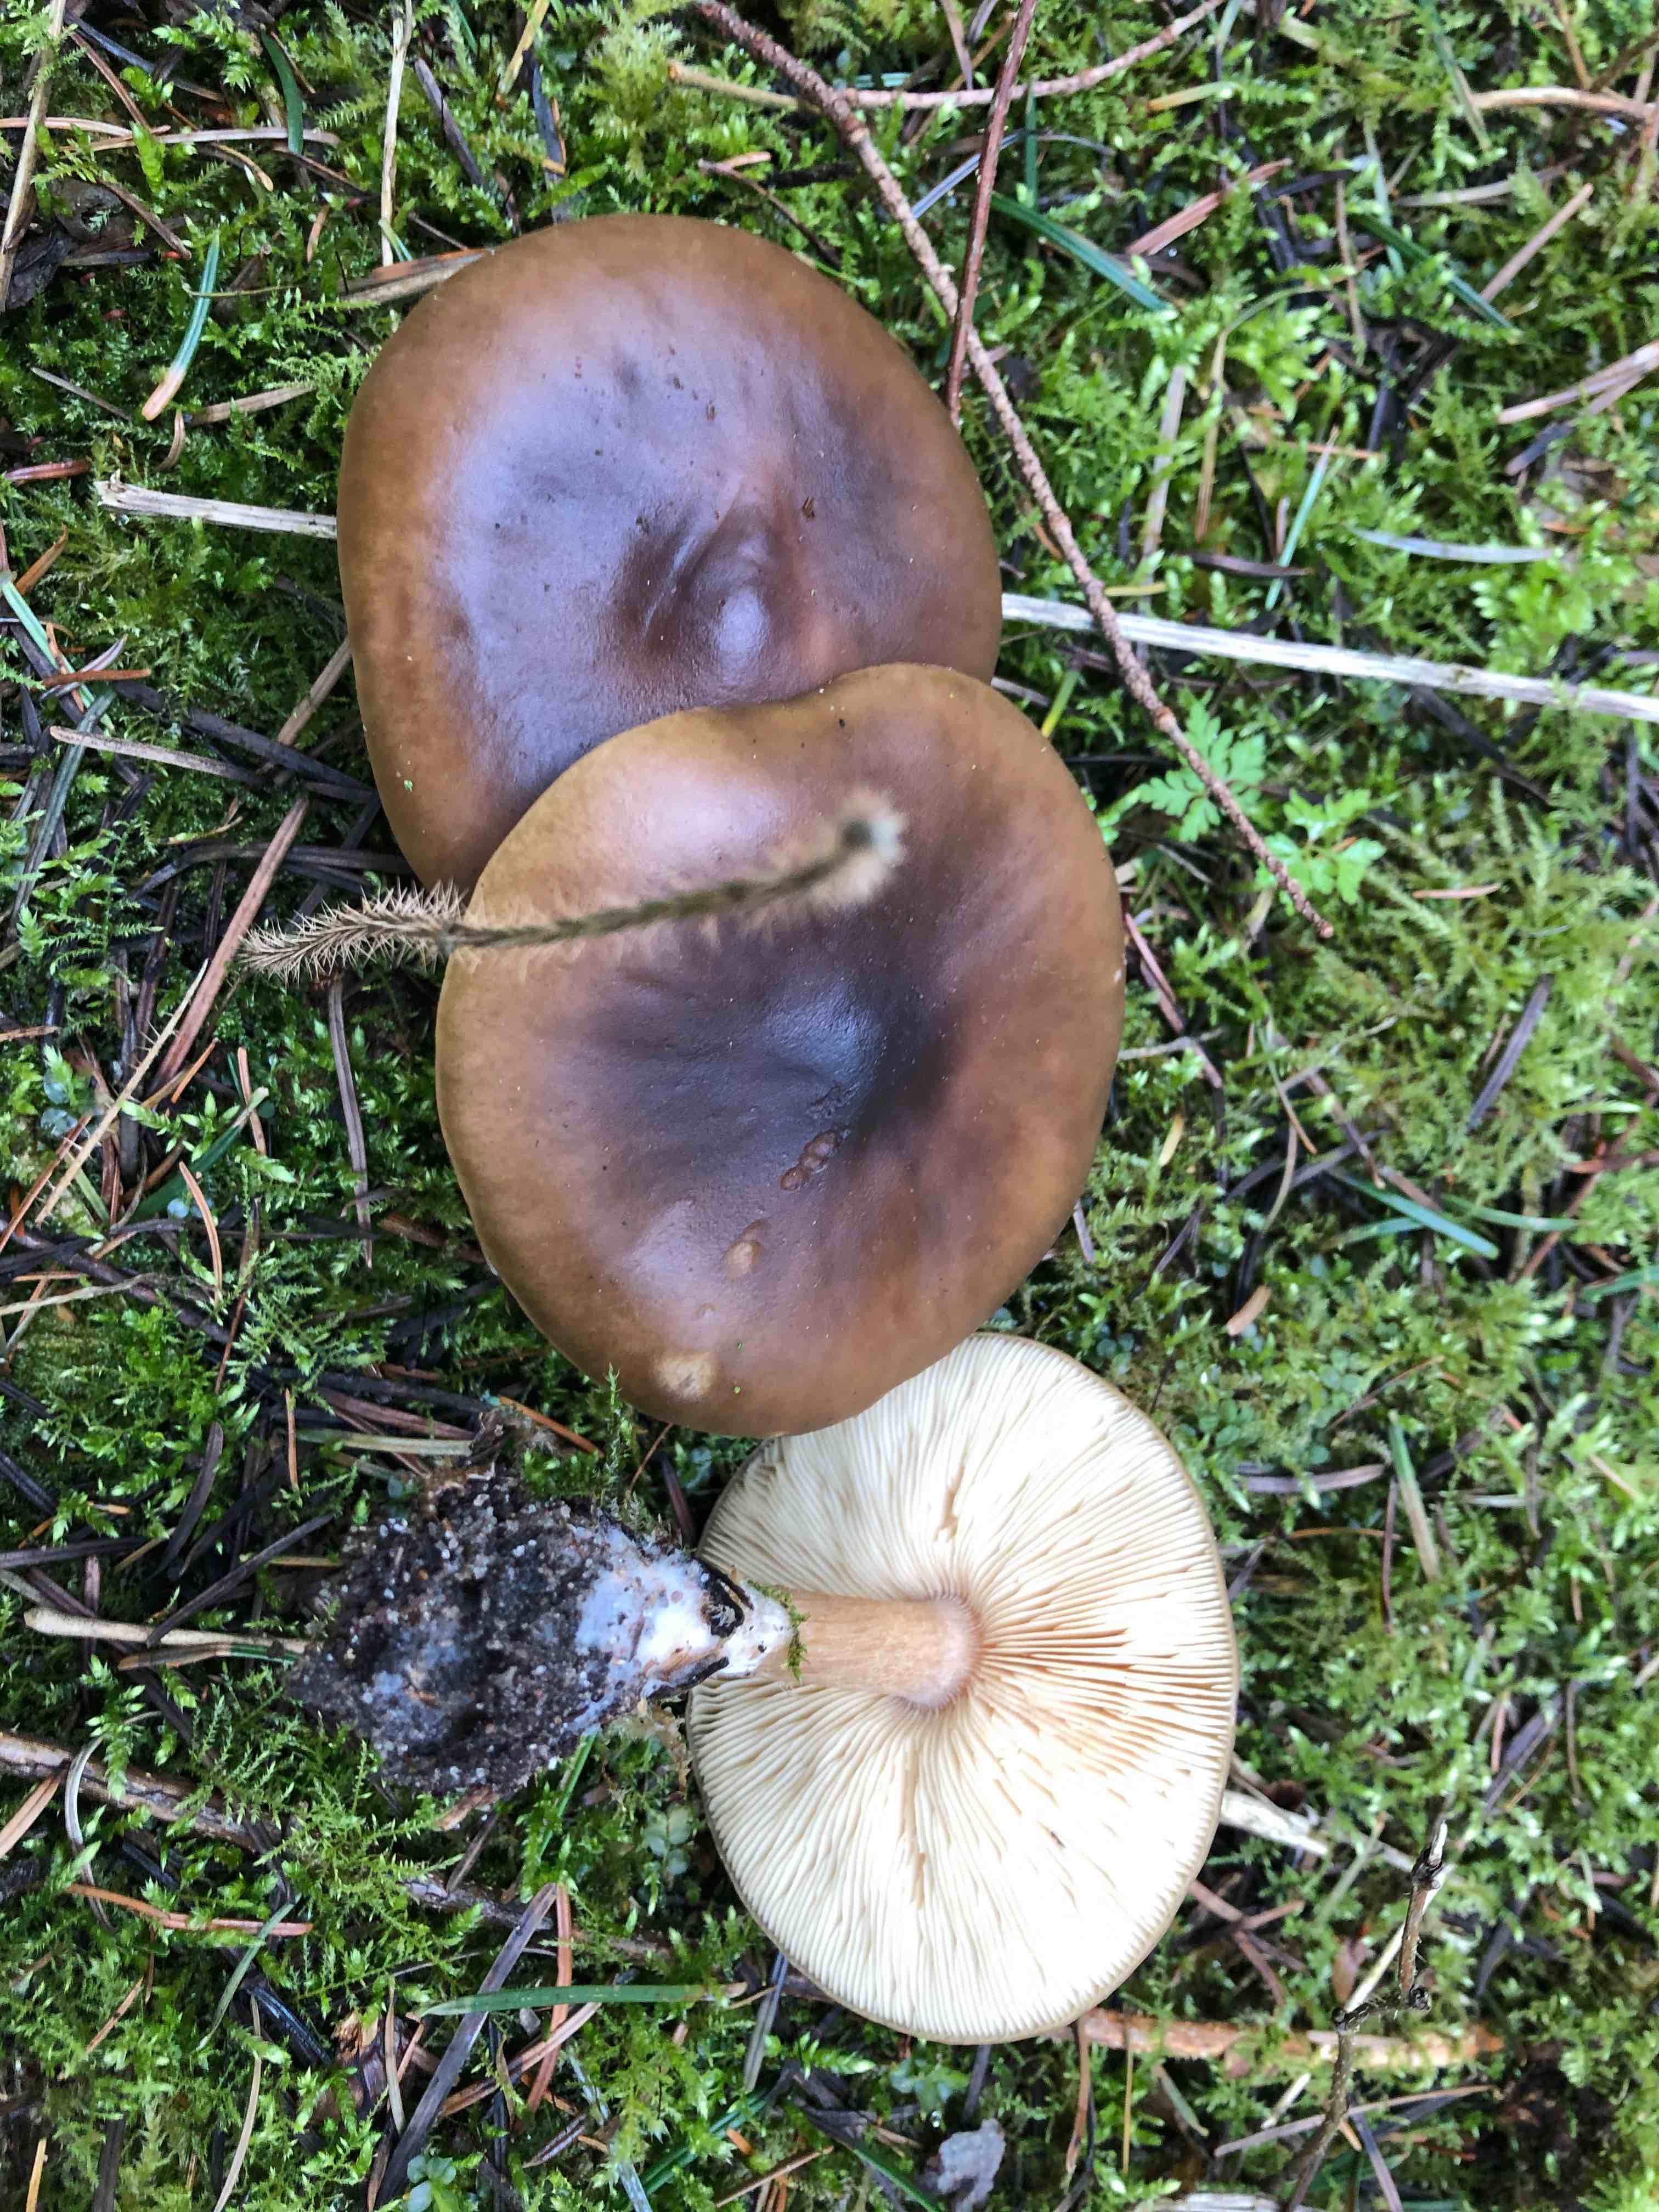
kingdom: Fungi
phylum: Basidiomycota
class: Agaricomycetes
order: Agaricales
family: Tricholomataceae
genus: Melanoleuca
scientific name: Melanoleuca cognata
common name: gyldengrå munkehat
